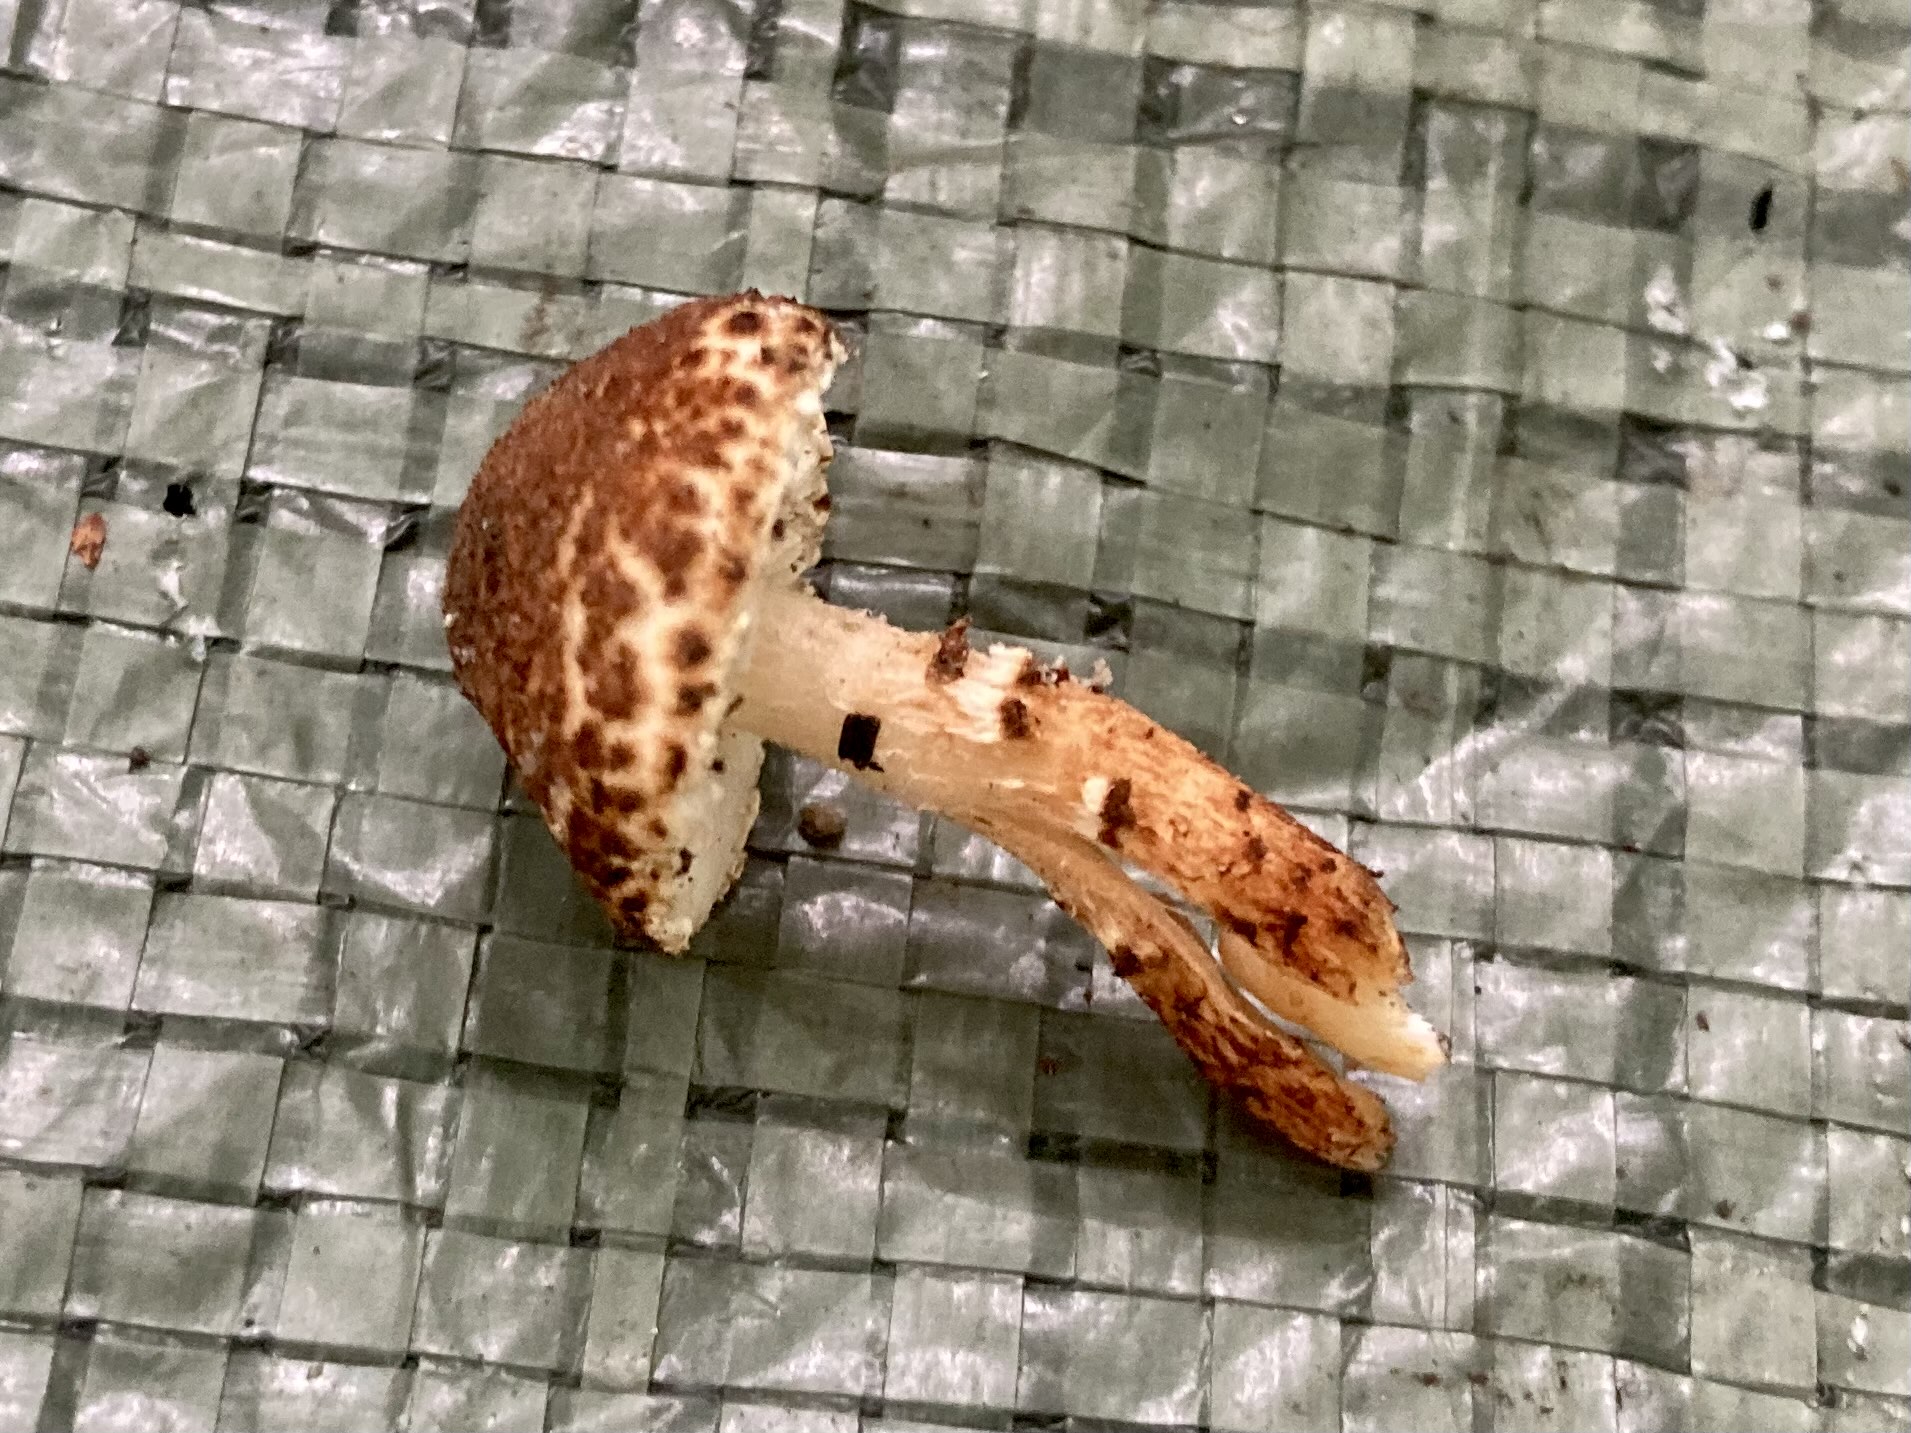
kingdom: Fungi
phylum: Basidiomycota
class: Agaricomycetes
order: Agaricales
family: Agaricaceae
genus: Lepiota
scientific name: Lepiota castanea
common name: kastaniebrun parasolhat
